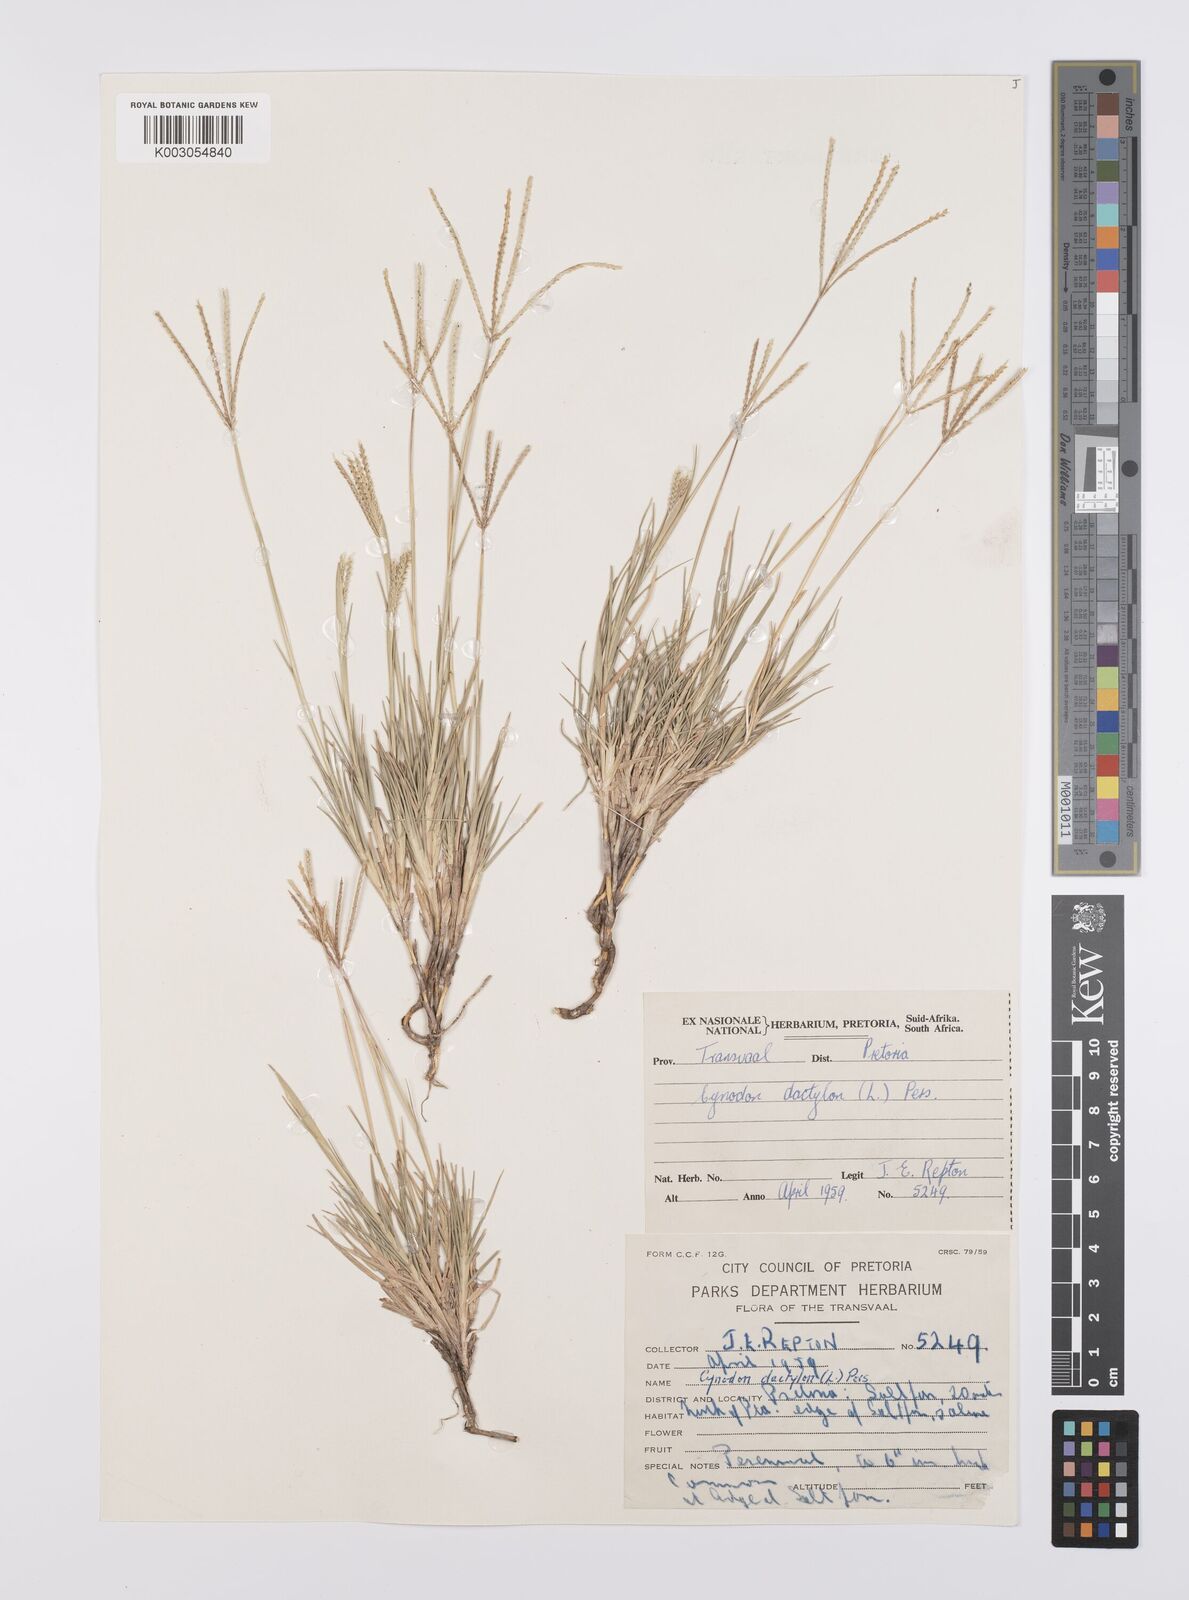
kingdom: Plantae
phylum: Tracheophyta
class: Liliopsida
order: Poales
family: Poaceae
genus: Cynodon
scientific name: Cynodon dactylon
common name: Bermuda grass
